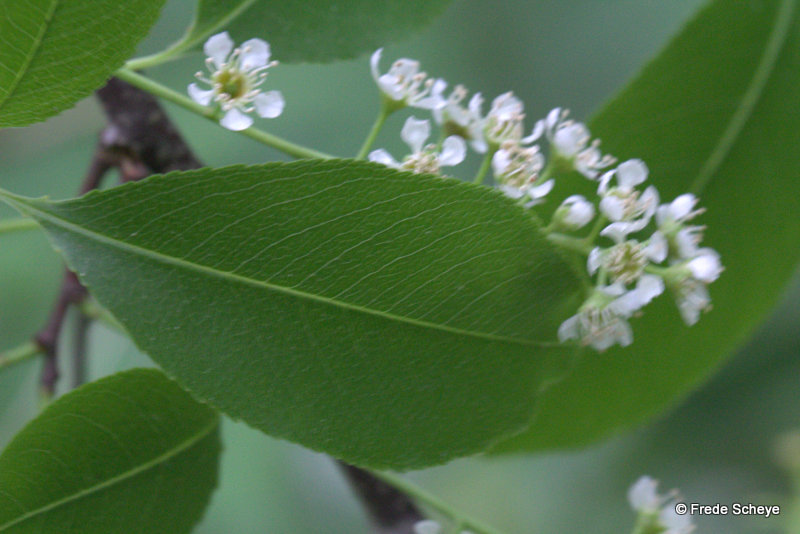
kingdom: Fungi
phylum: Basidiomycota
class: Agaricomycetes
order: Amylocorticiales
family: Amylocorticiaceae
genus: Plicaturopsis
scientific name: Plicaturopsis crispa
